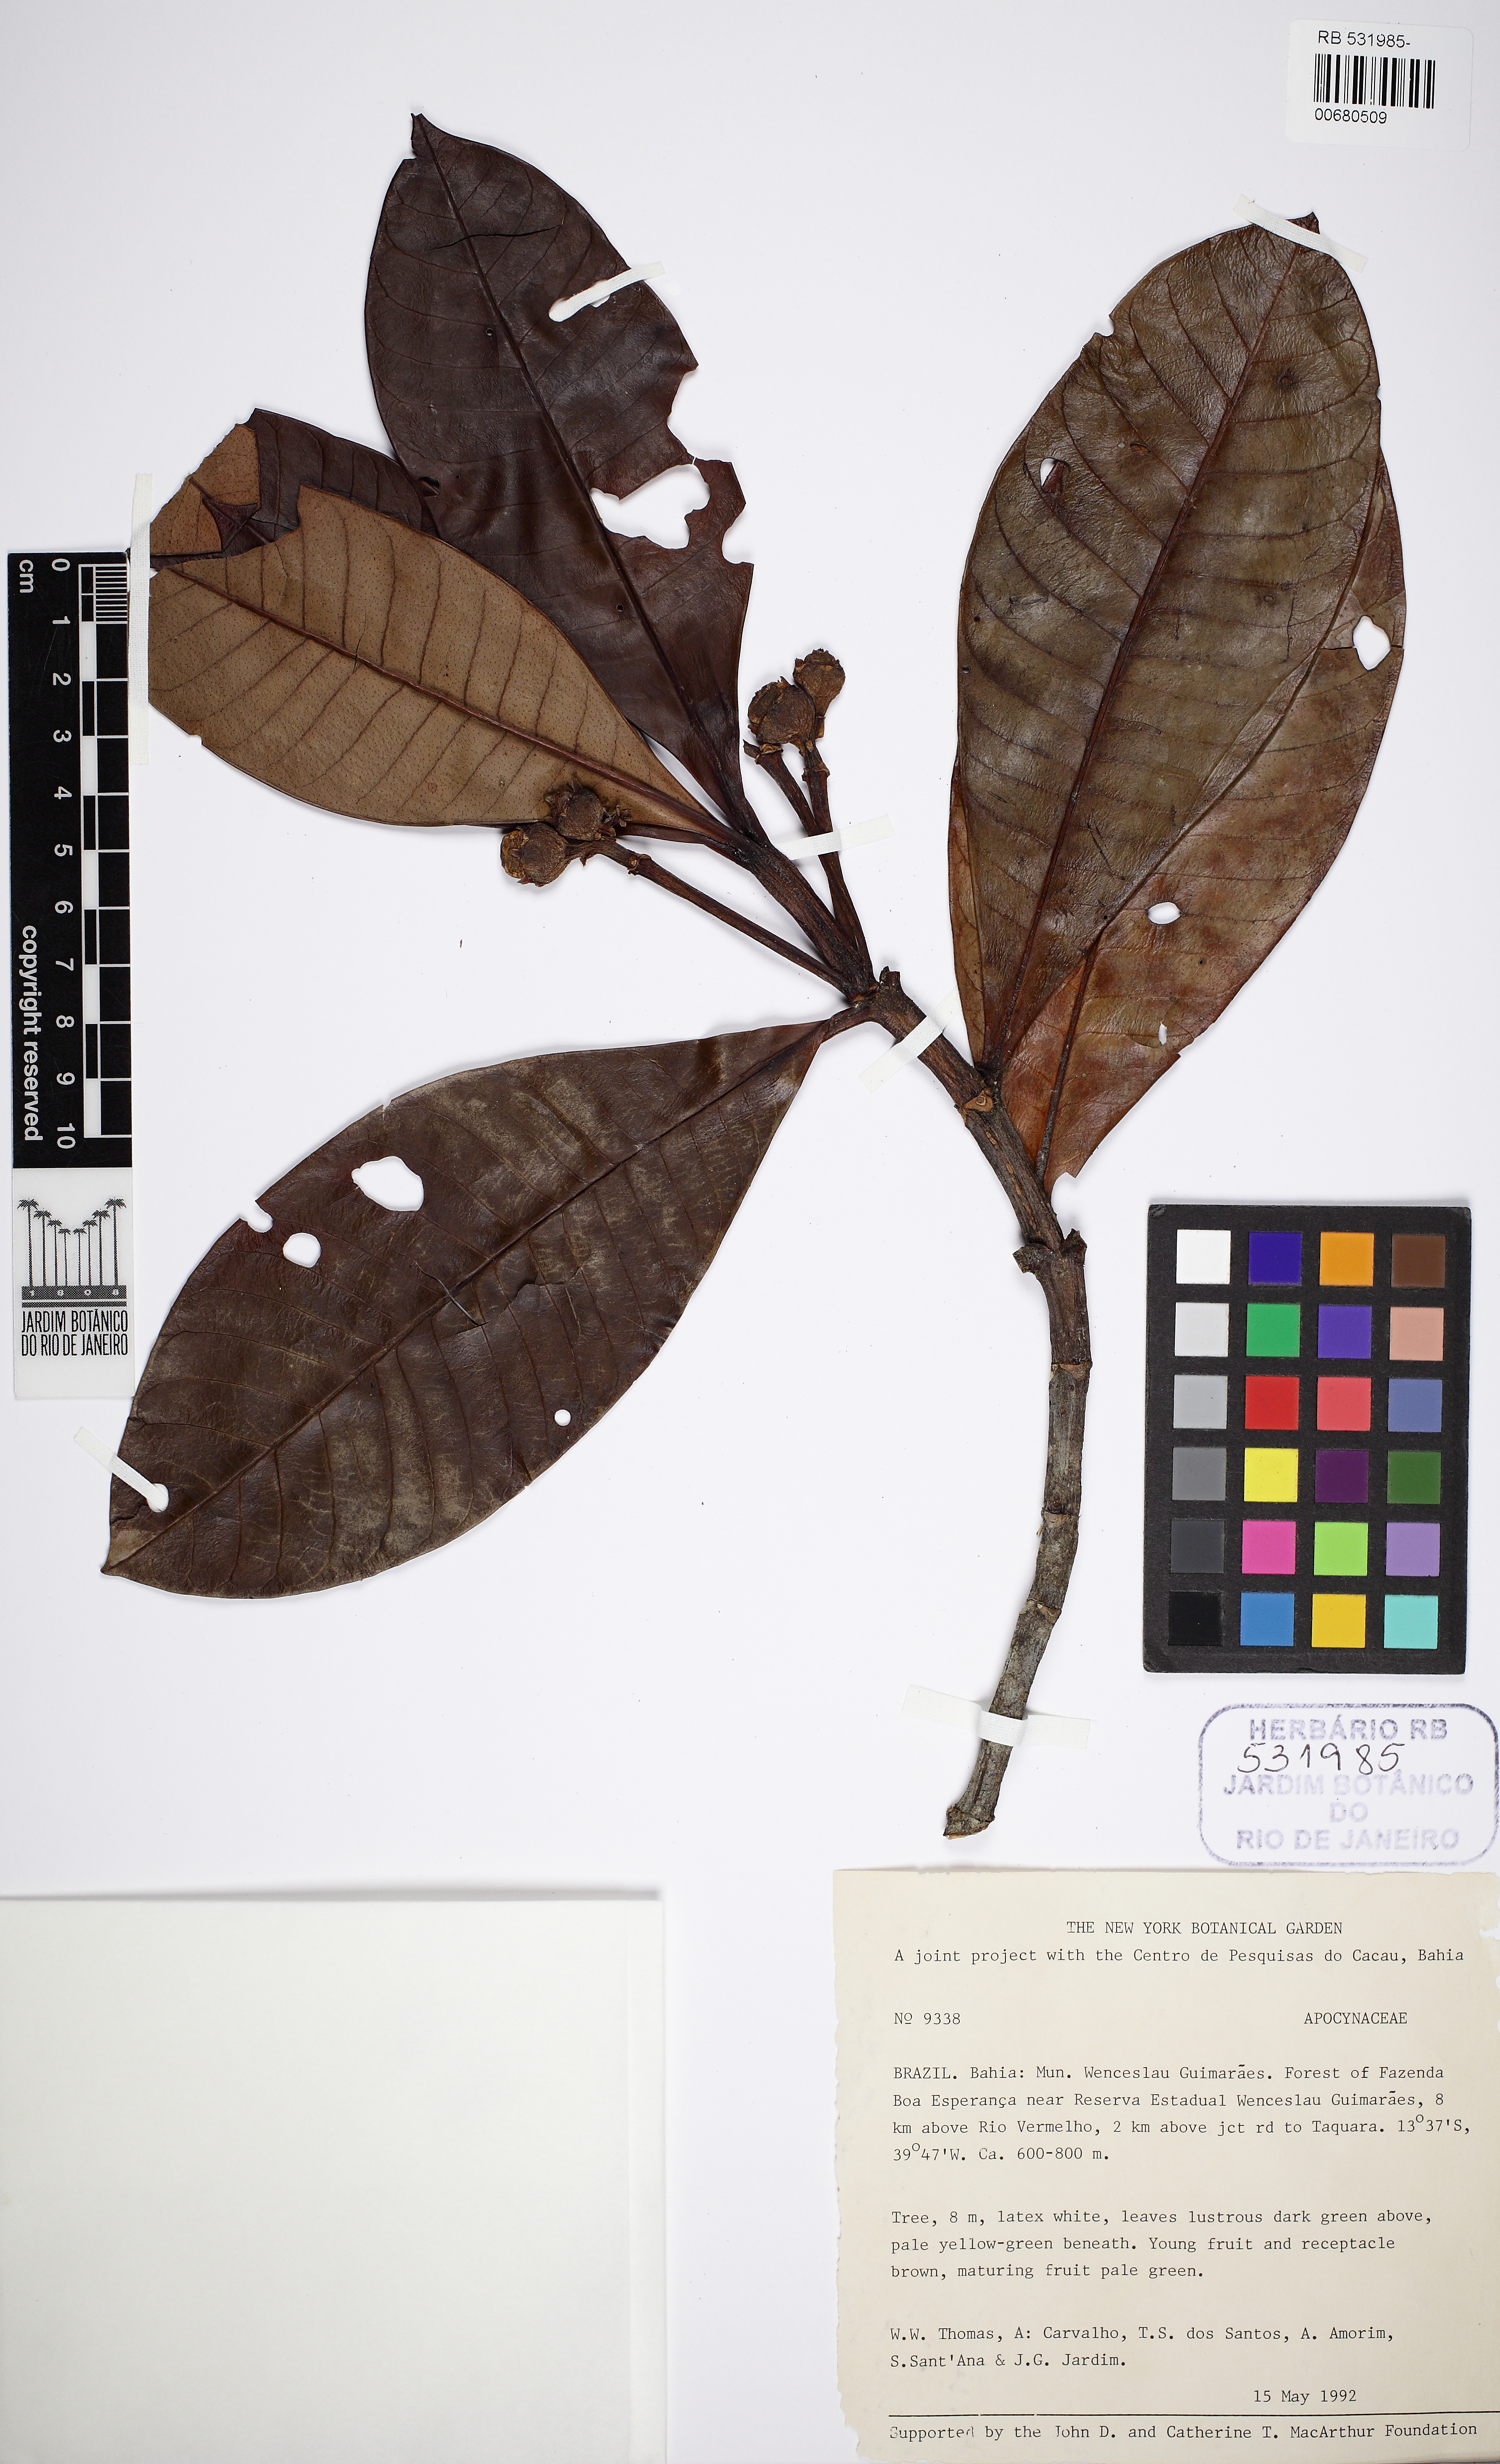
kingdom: Plantae
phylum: Tracheophyta
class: Magnoliopsida
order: Gentianales
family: Apocynaceae
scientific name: Apocynaceae
